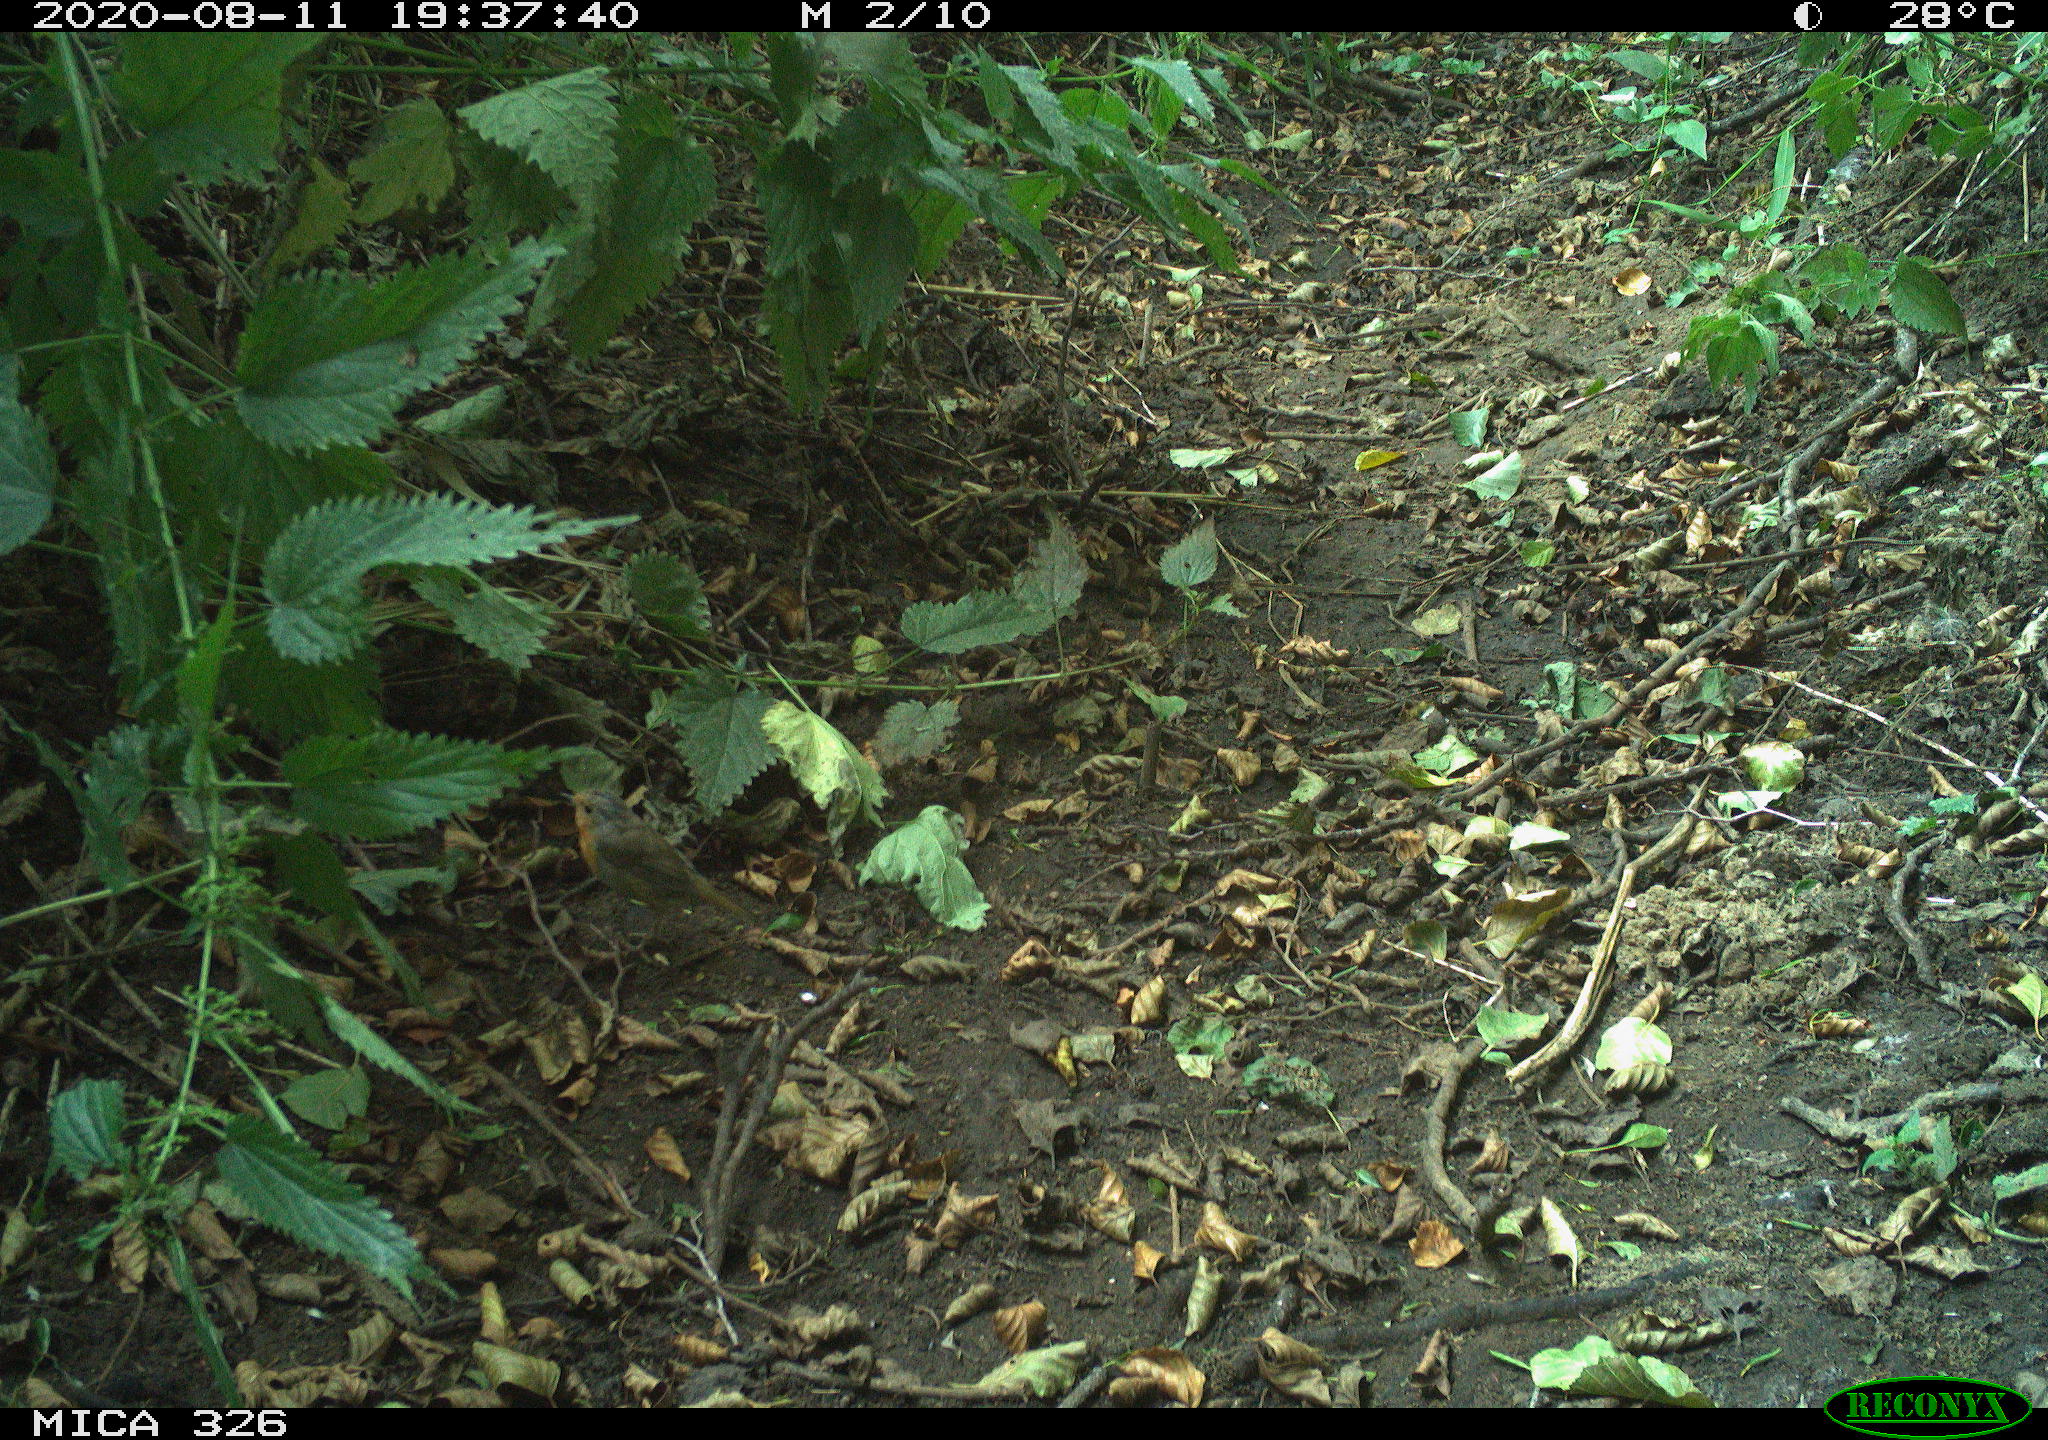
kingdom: Animalia
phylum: Chordata
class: Aves
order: Passeriformes
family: Muscicapidae
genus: Erithacus
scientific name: Erithacus rubecula
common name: European robin
